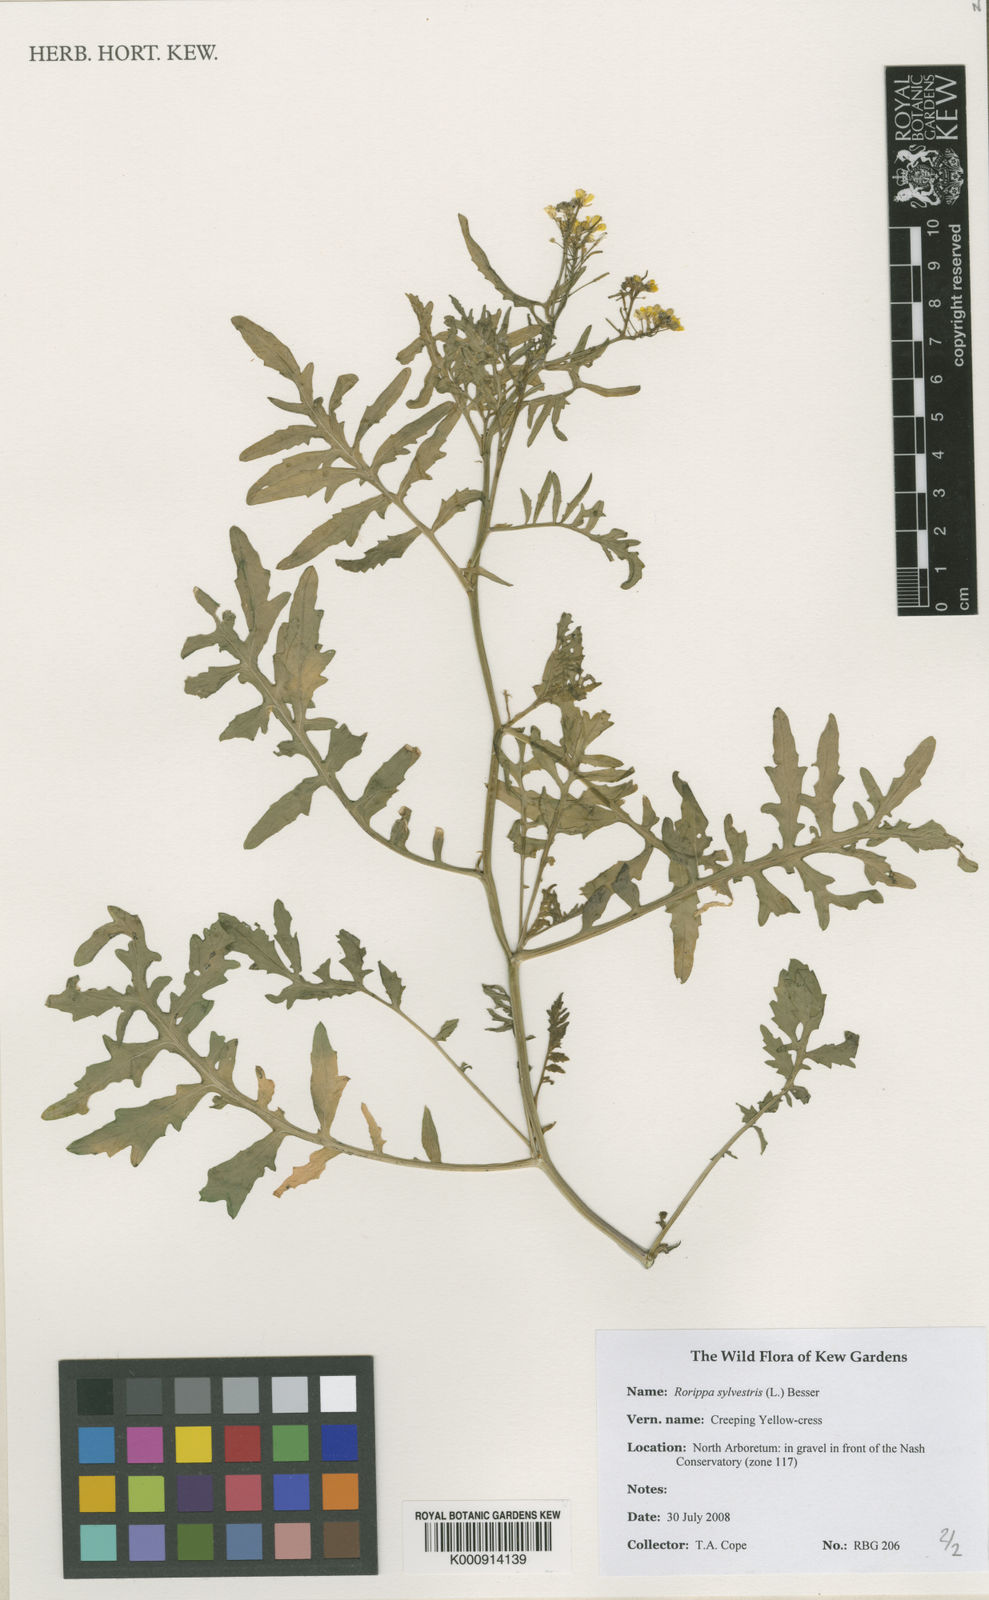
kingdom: Plantae
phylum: Tracheophyta
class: Magnoliopsida
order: Brassicales
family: Brassicaceae
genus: Rorippa
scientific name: Rorippa sylvestris
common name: Creeping yellowcress
